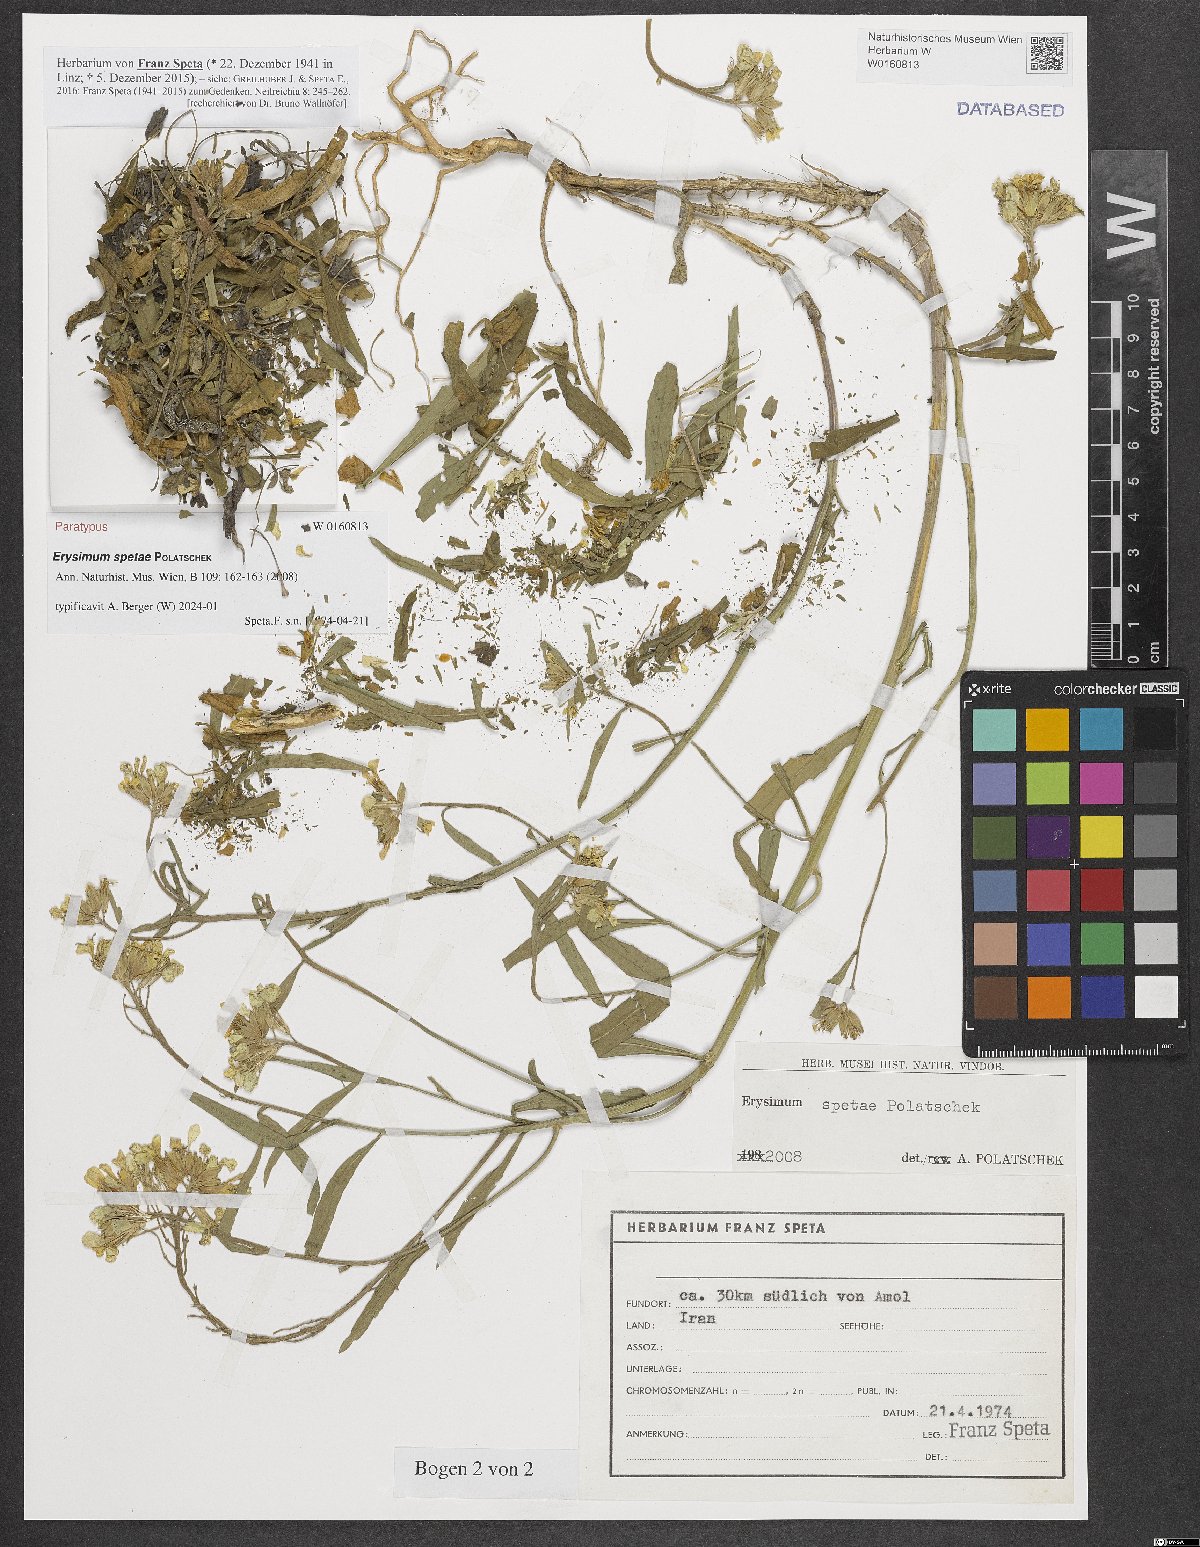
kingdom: Plantae
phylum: Tracheophyta
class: Magnoliopsida
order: Brassicales
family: Brassicaceae
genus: Erysimum
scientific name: Erysimum spetae
